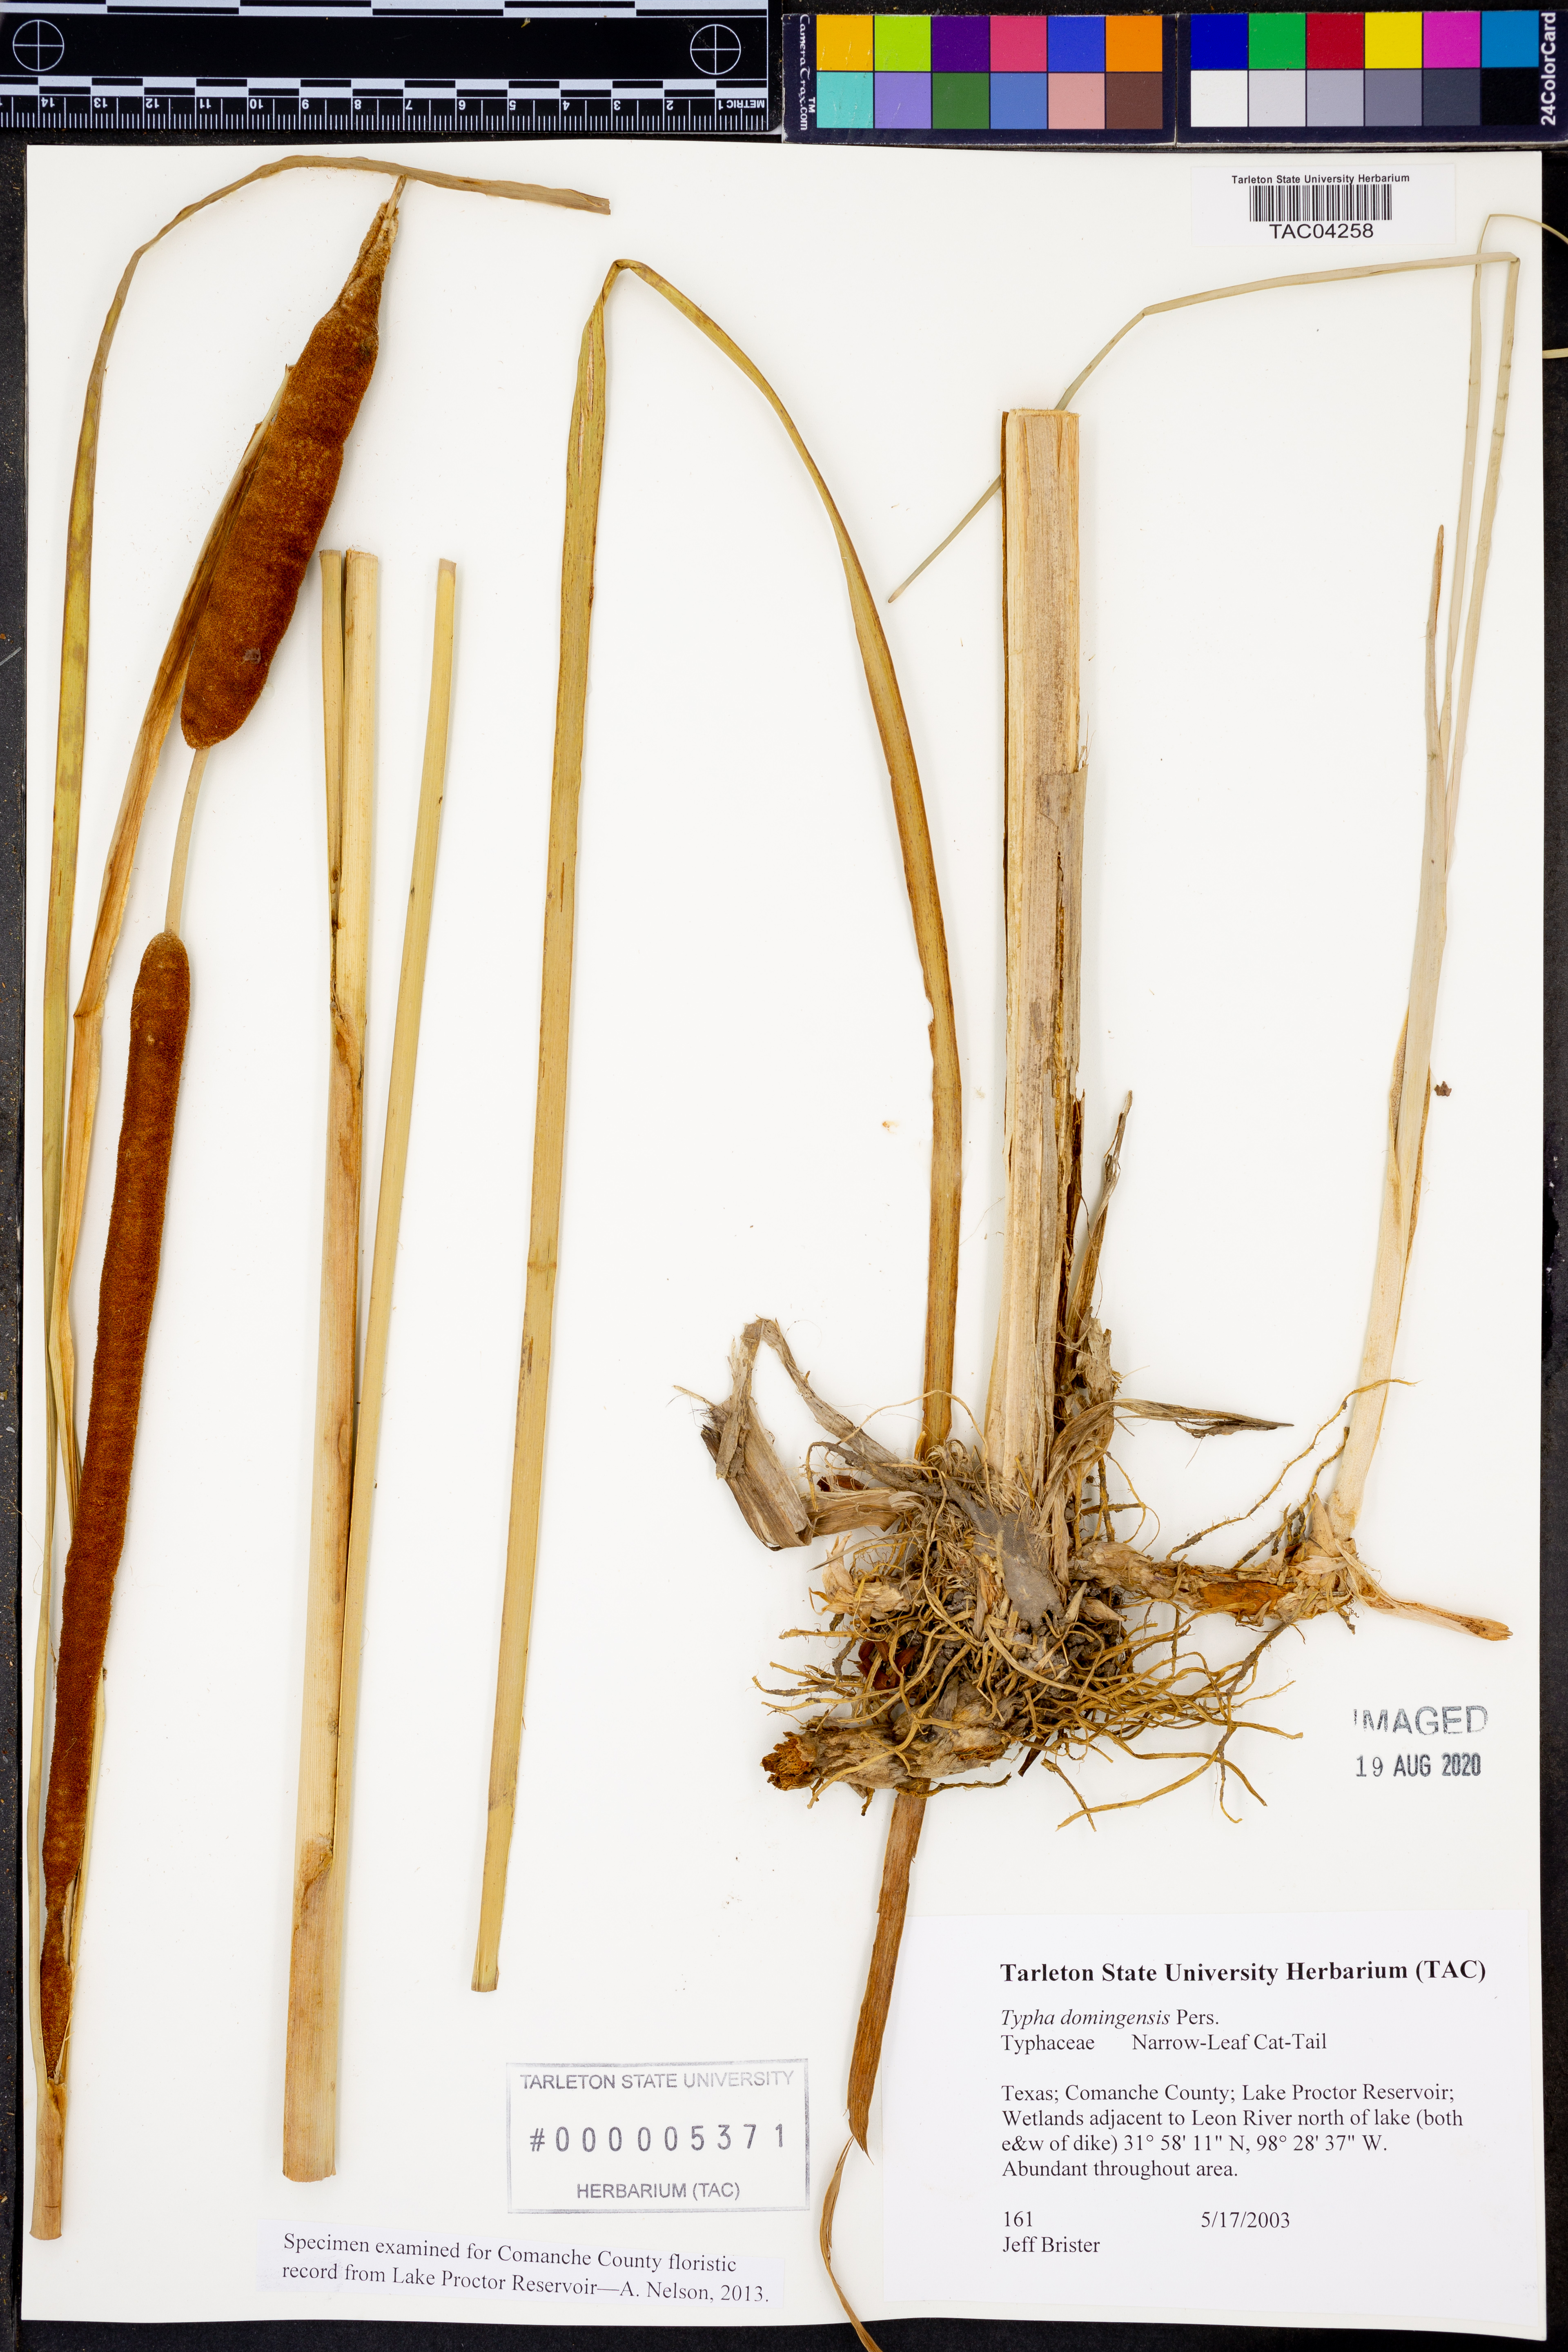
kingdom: Plantae
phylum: Tracheophyta
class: Liliopsida
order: Poales
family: Typhaceae
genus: Typha
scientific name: Typha domingensis
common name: Southern cattail
